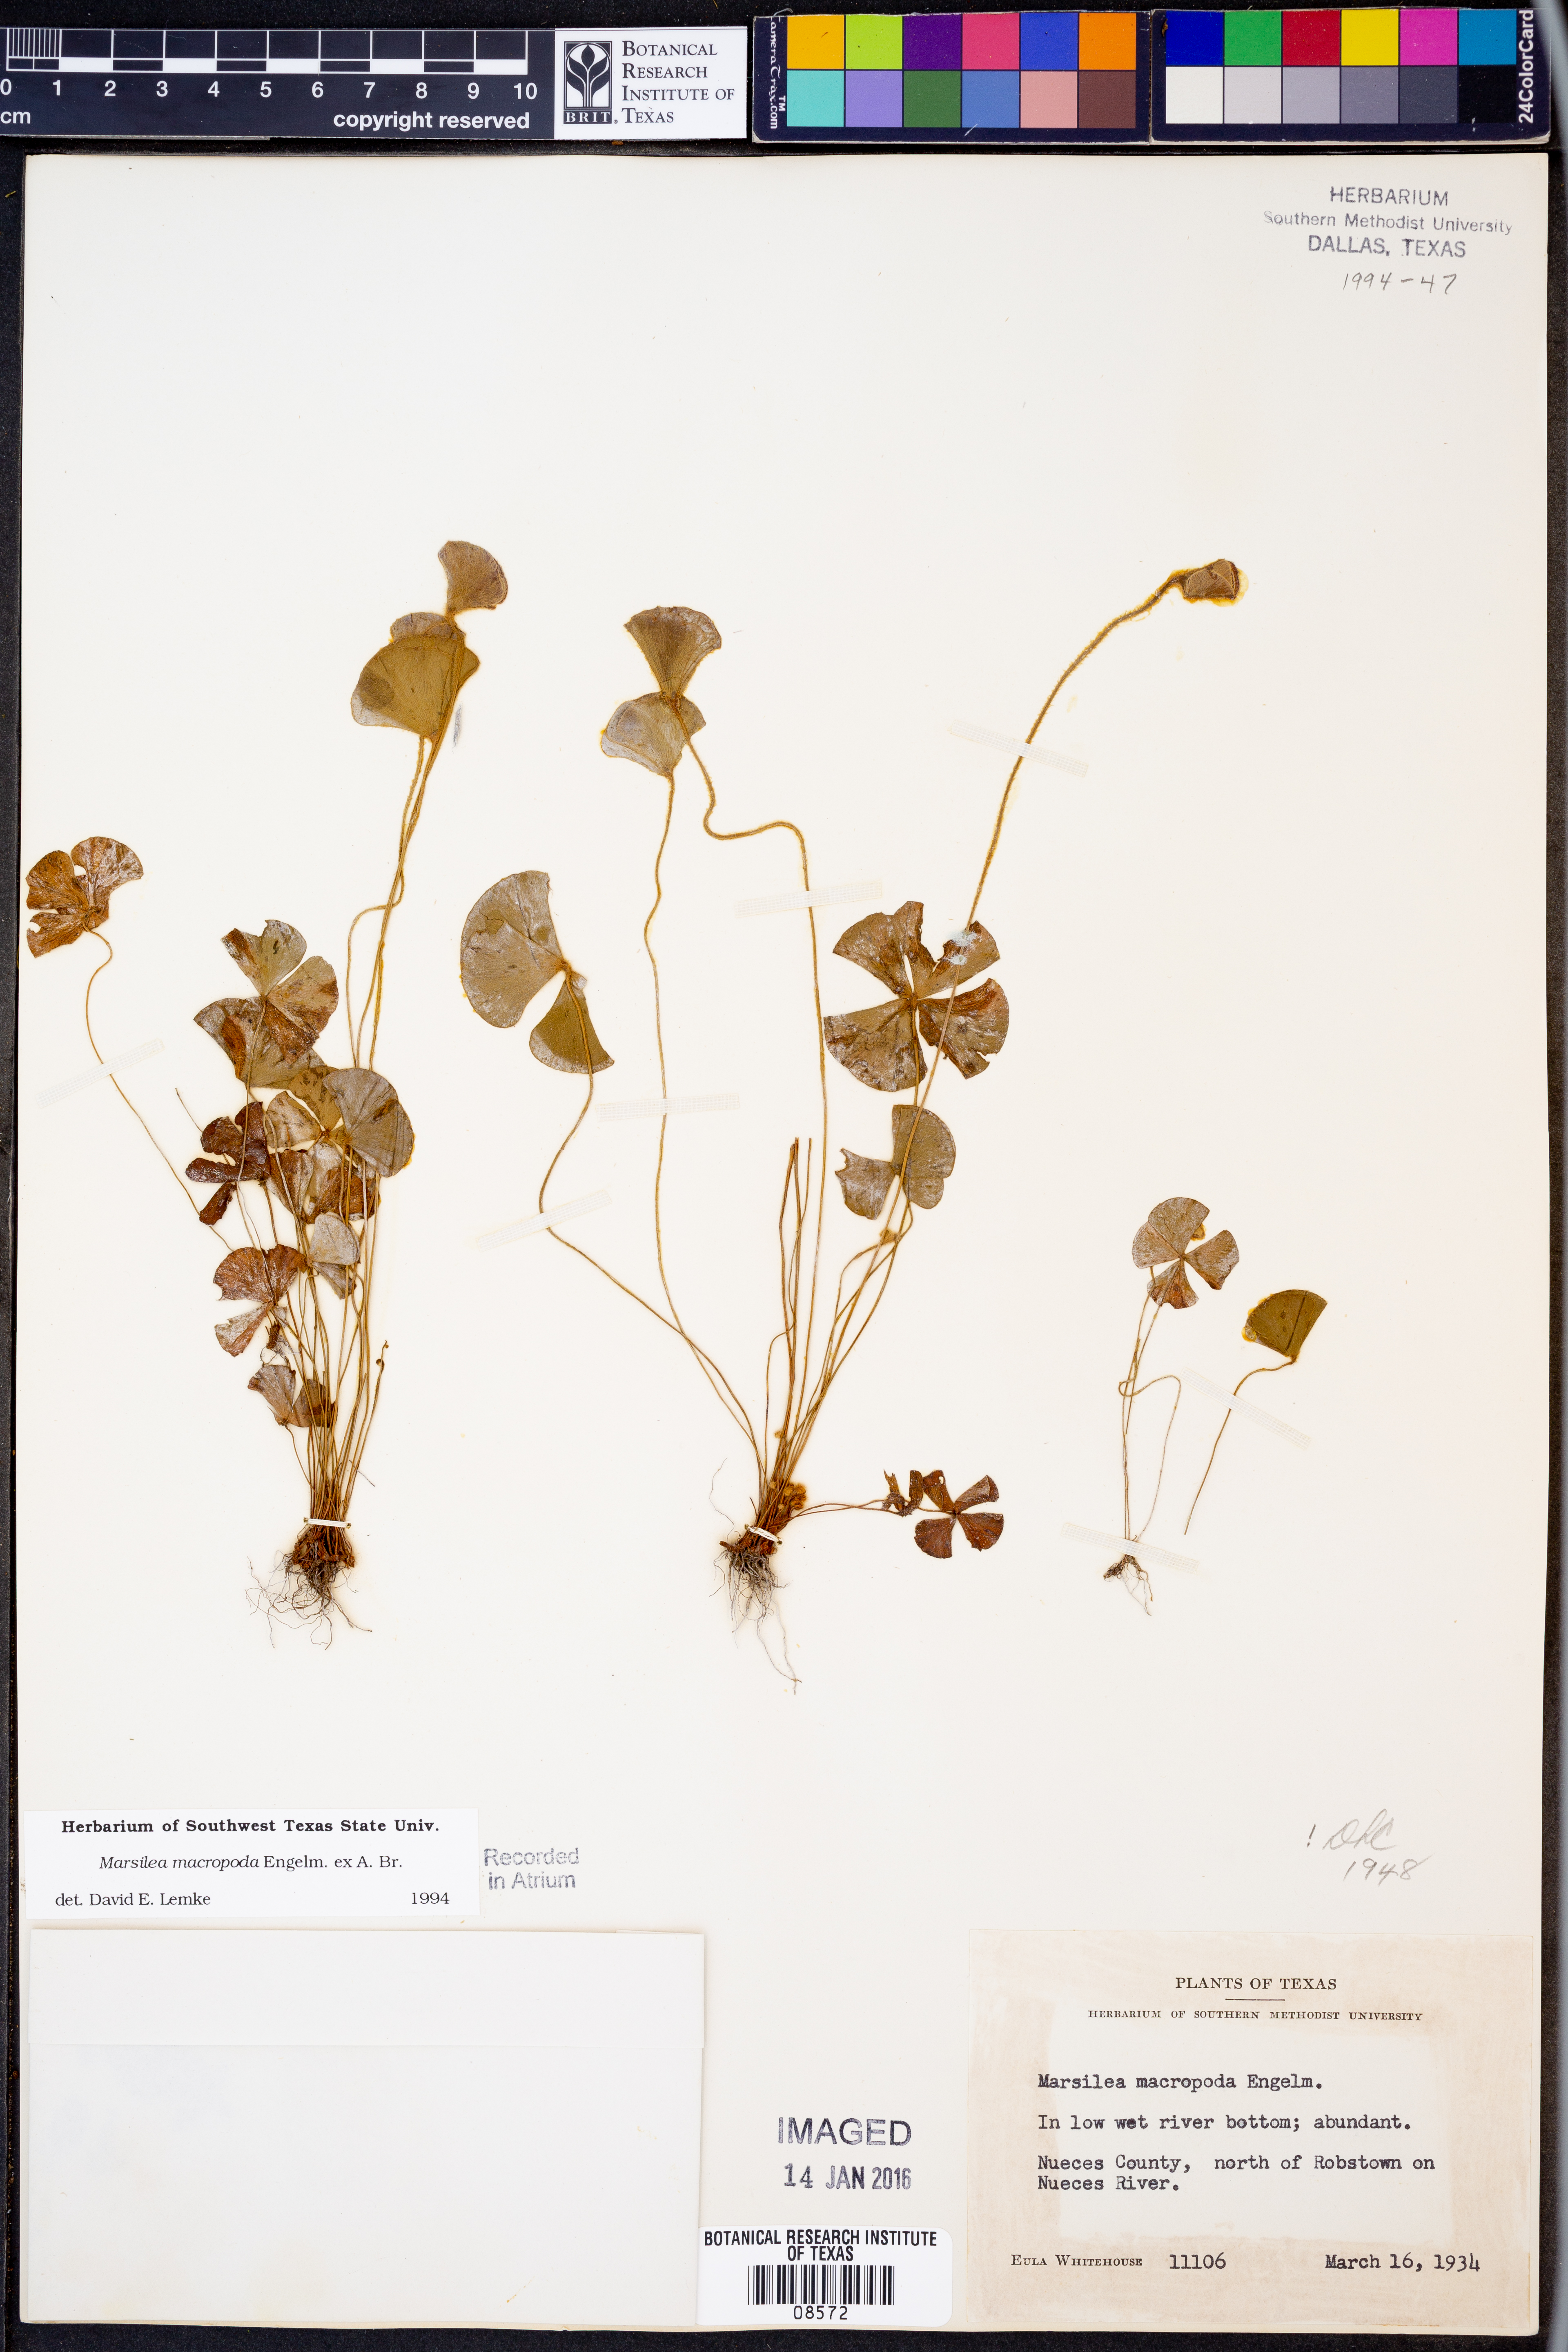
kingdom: Plantae
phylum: Tracheophyta
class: Polypodiopsida
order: Salviniales
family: Marsileaceae
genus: Marsilea
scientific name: Marsilea macropoda
